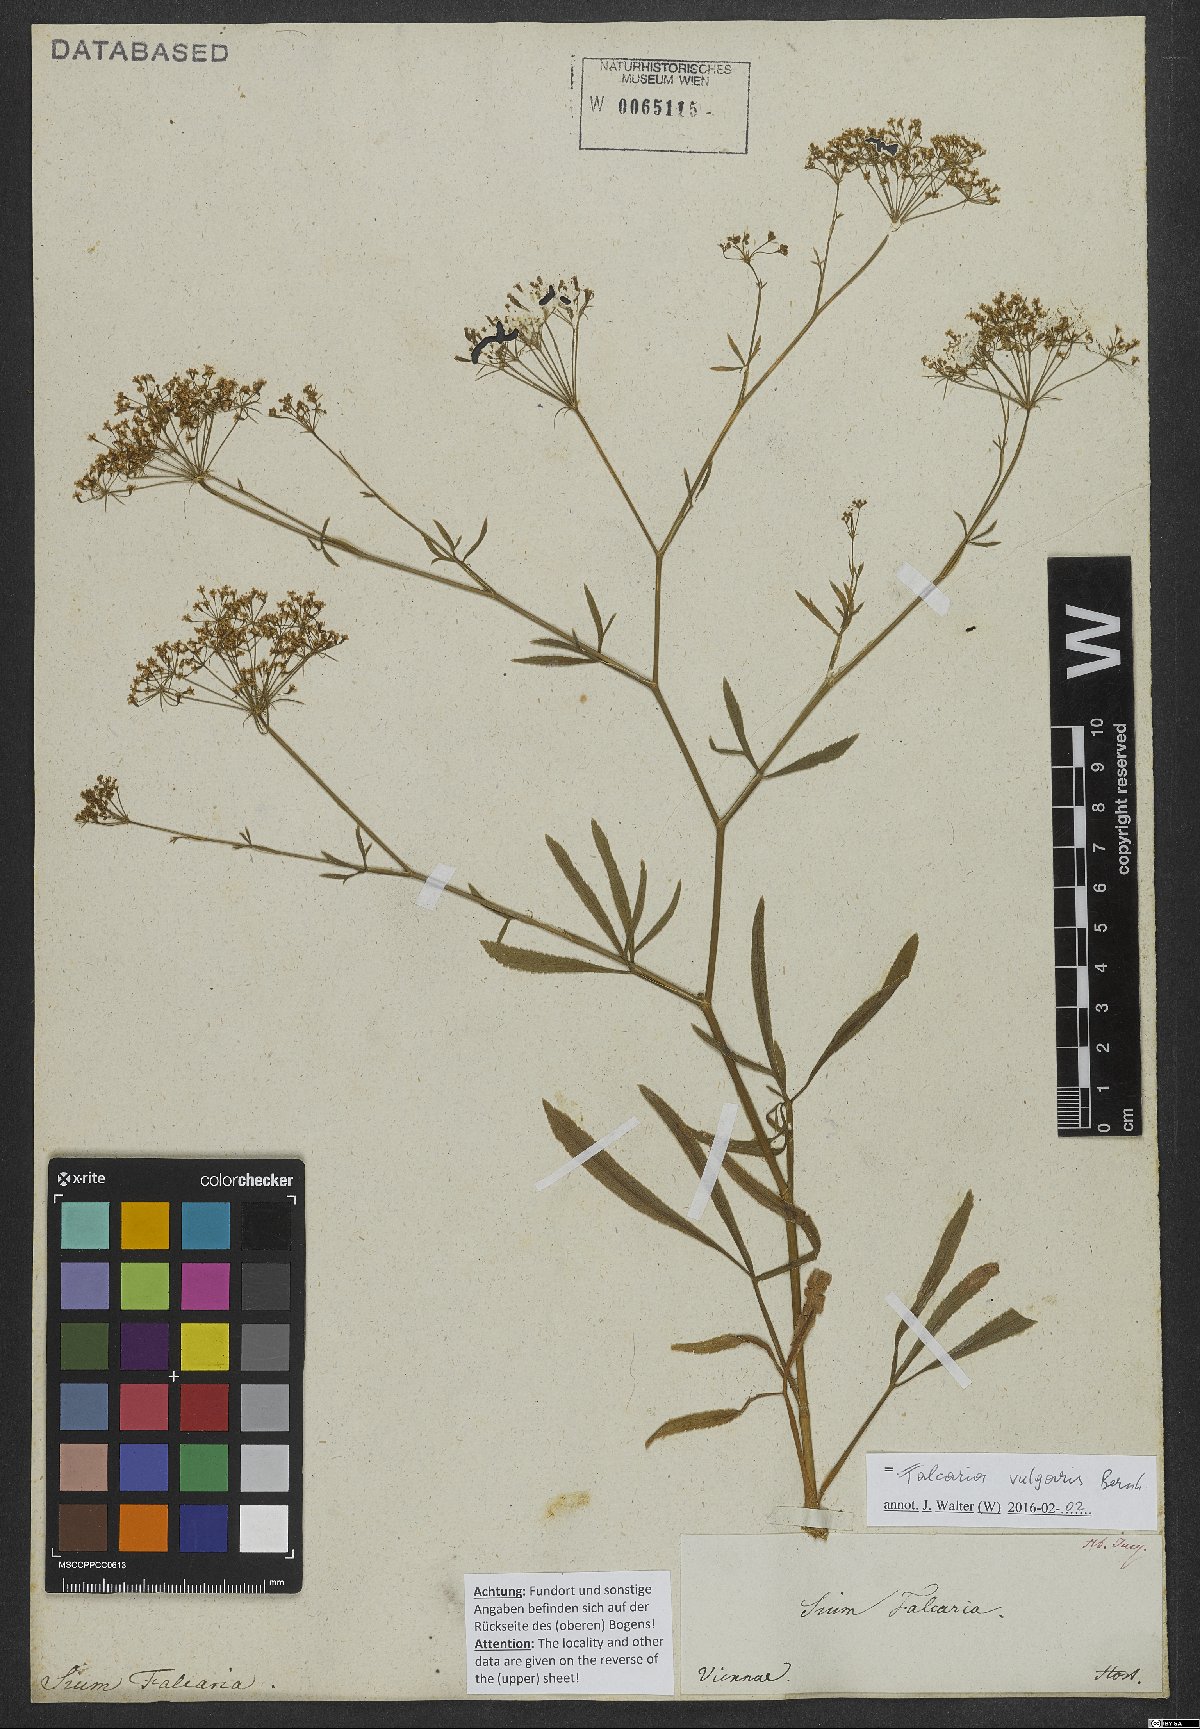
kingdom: Plantae
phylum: Tracheophyta
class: Magnoliopsida
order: Apiales
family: Apiaceae
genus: Falcaria
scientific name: Falcaria vulgaris
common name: Longleaf
